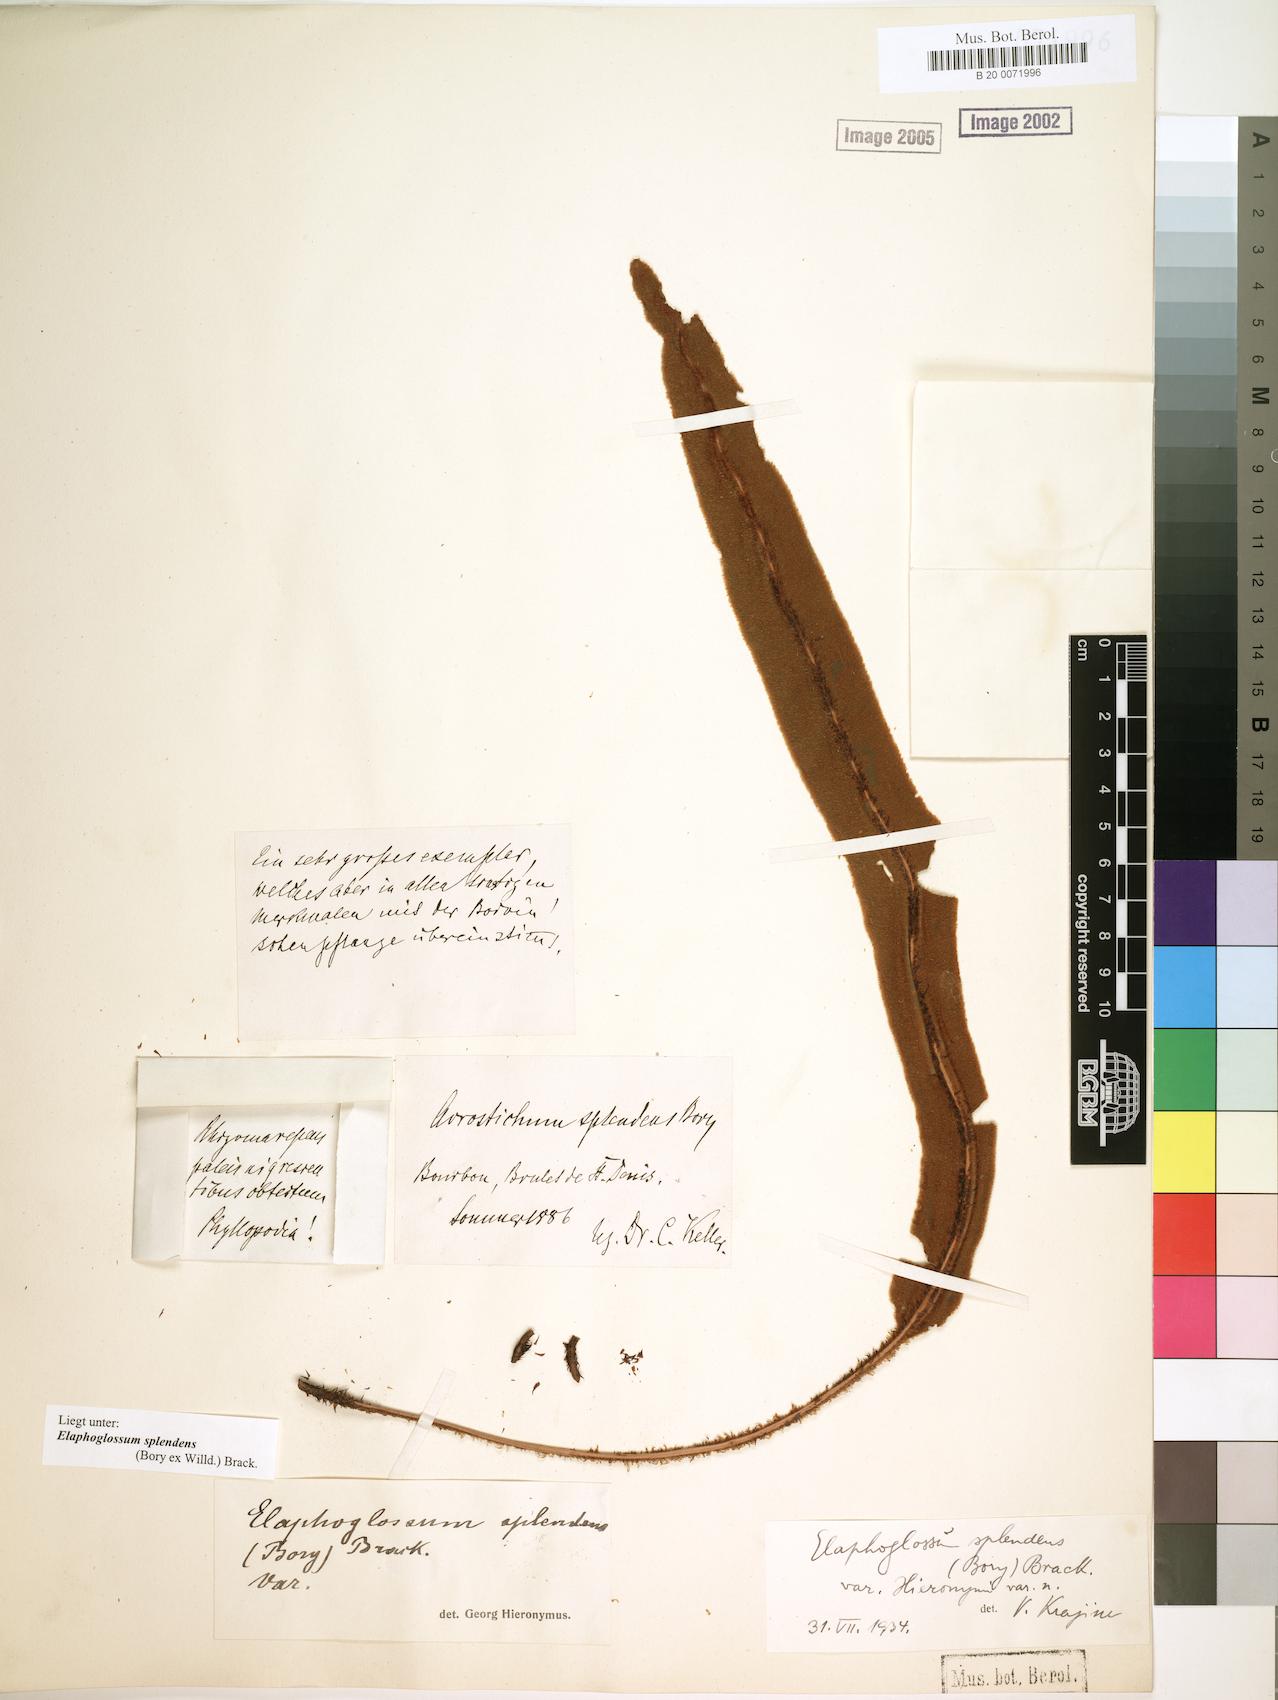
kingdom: Plantae
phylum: Tracheophyta
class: Polypodiopsida
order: Polypodiales
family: Dryopteridaceae
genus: Elaphoglossum
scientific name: Elaphoglossum splendens
